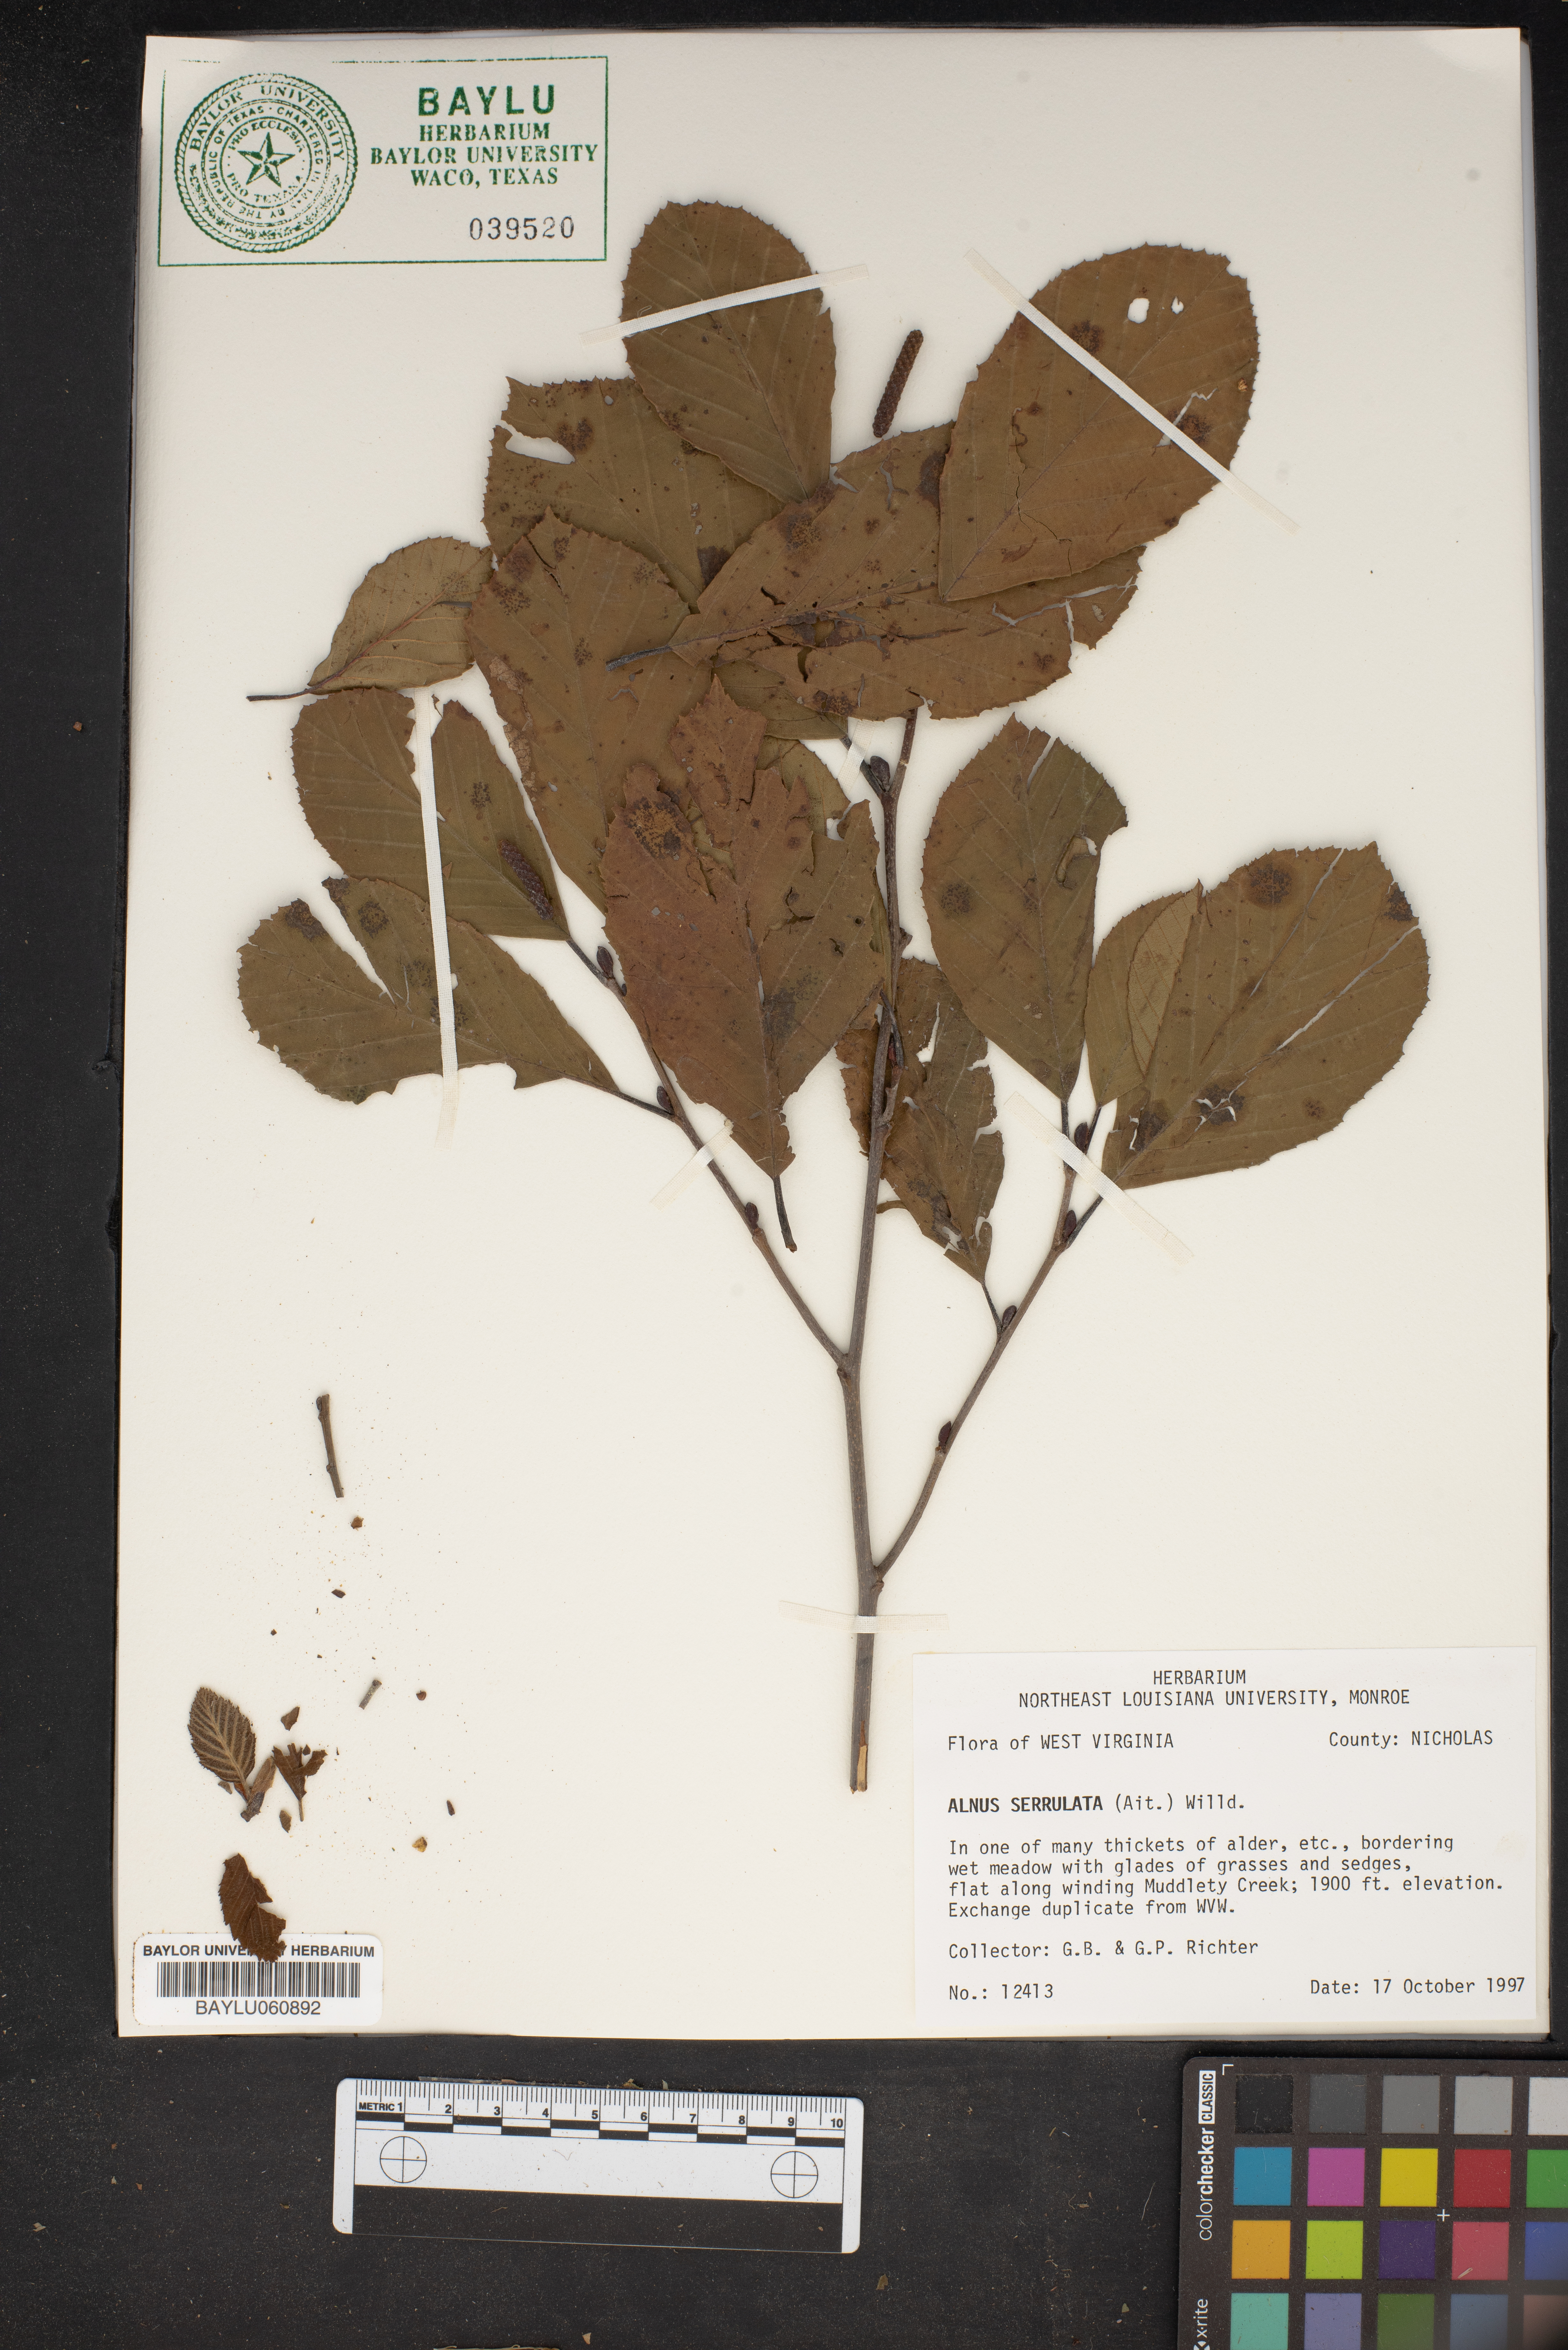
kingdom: Plantae
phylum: Tracheophyta
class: Magnoliopsida
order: Fagales
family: Betulaceae
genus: Alnus
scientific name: Alnus serrulata
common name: Hazel alder
